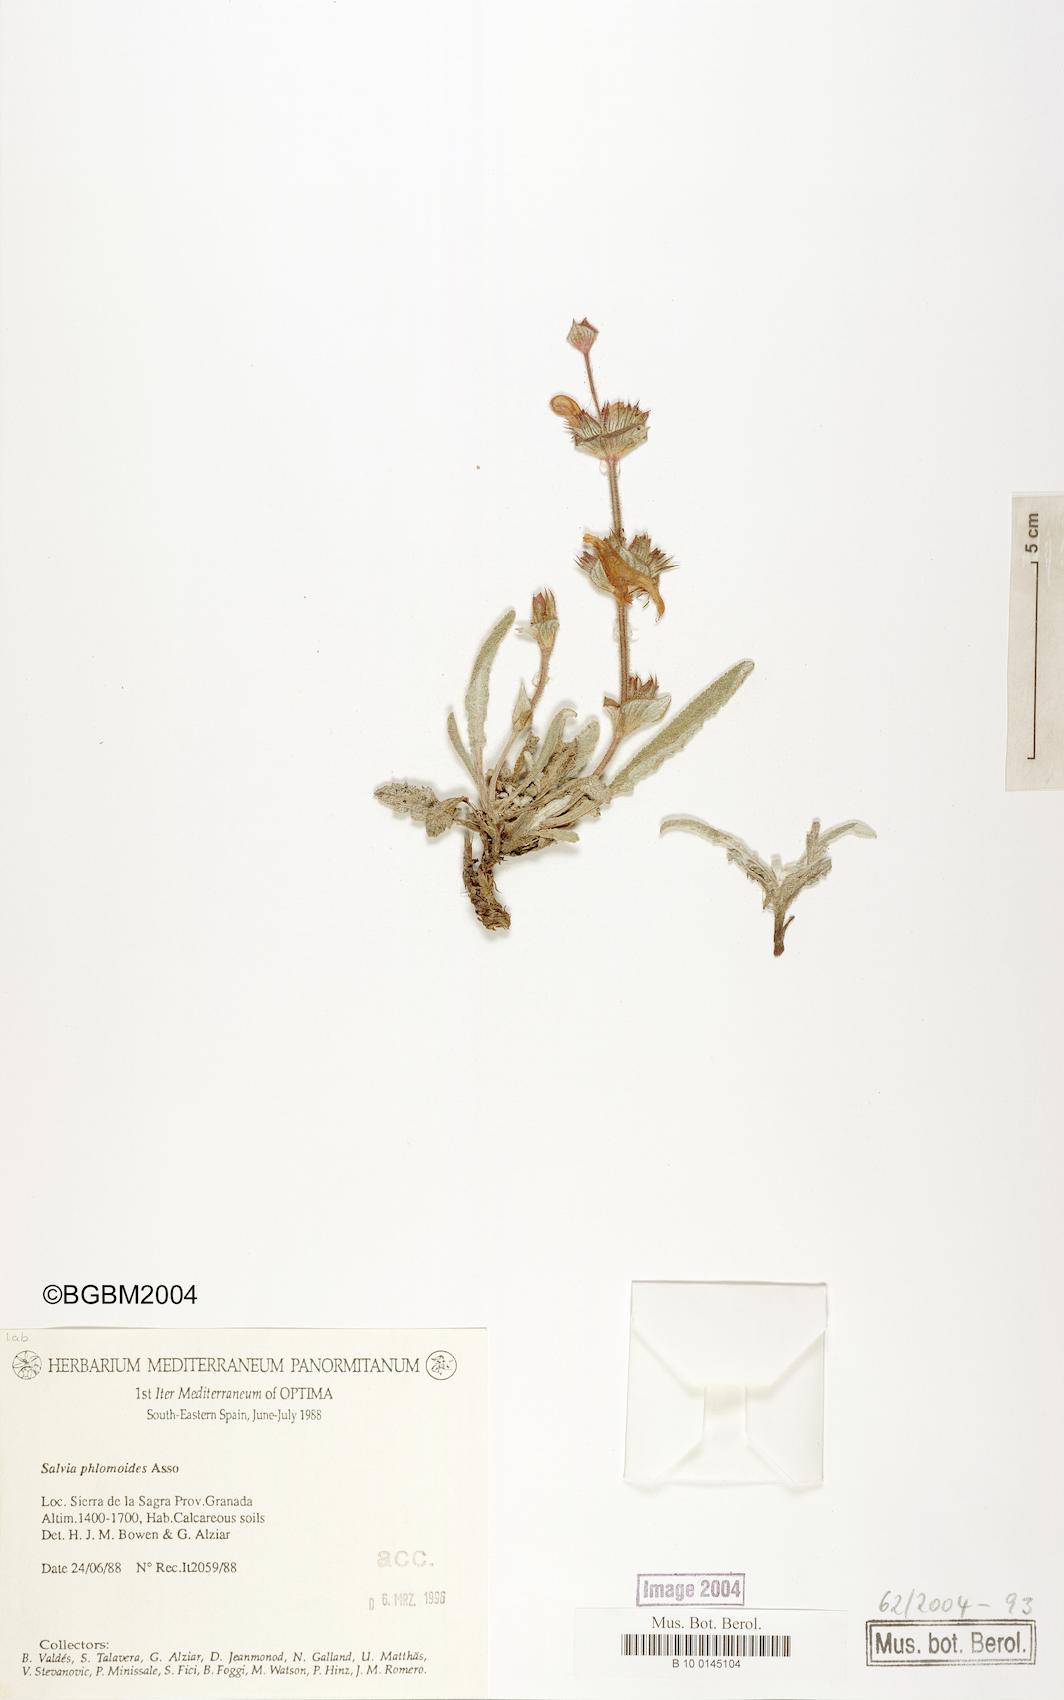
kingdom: Plantae
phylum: Tracheophyta
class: Magnoliopsida
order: Lamiales
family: Lamiaceae
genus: Salvia
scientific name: Salvia phlomoides
